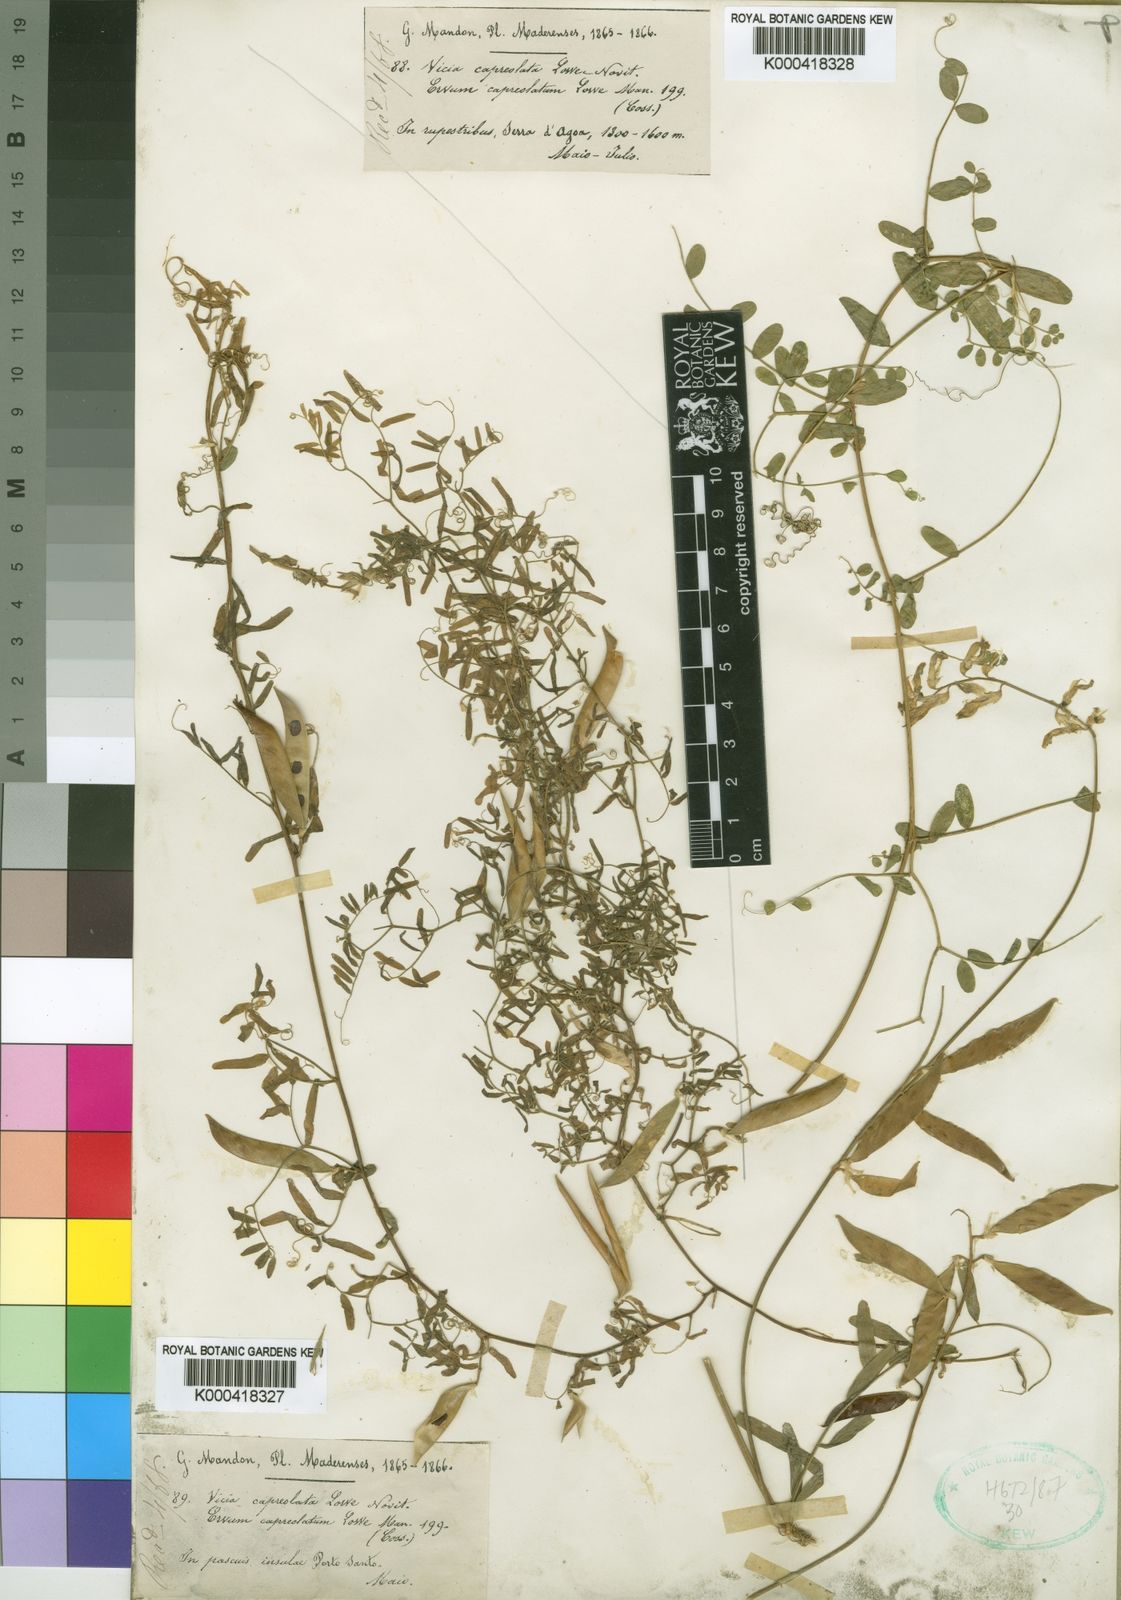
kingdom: Plantae
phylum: Tracheophyta
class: Magnoliopsida
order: Fabales
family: Fabaceae
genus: Vicia
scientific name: Vicia capreolata
